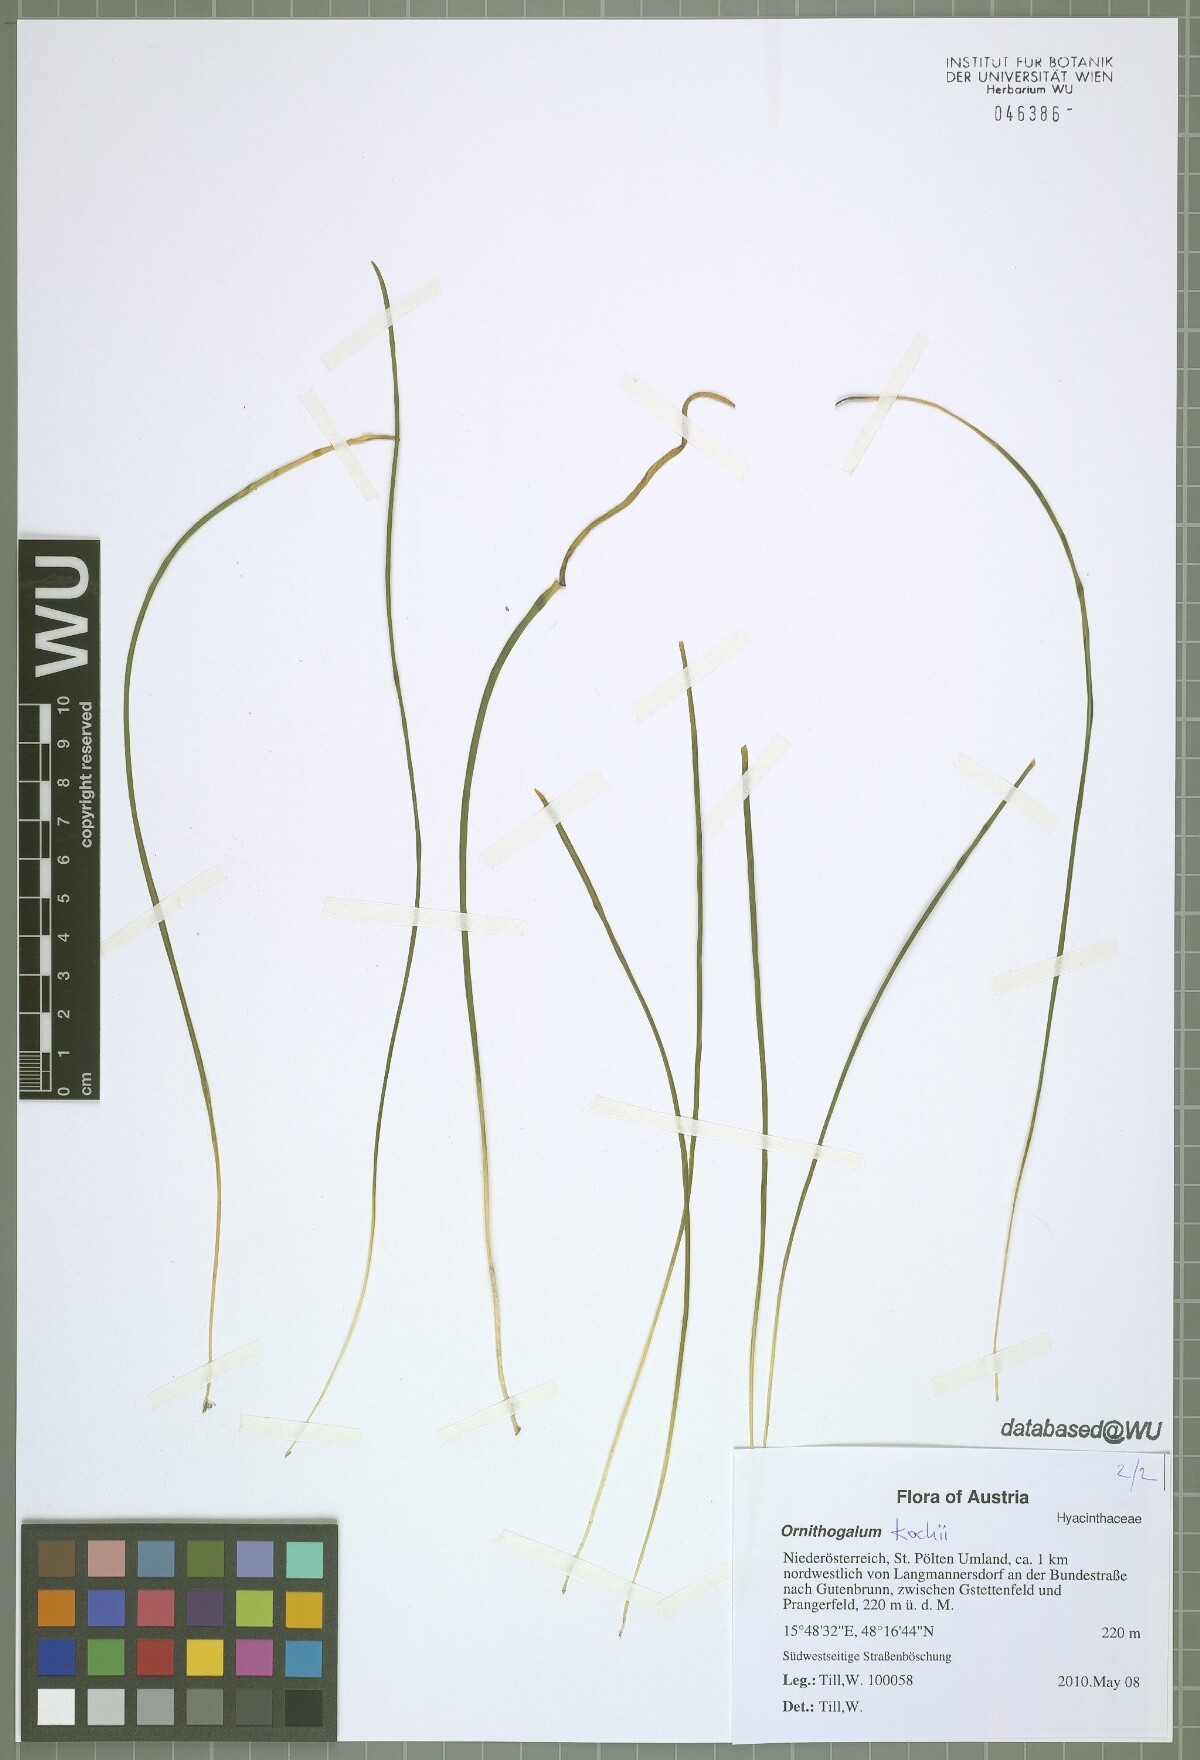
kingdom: Plantae
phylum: Tracheophyta
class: Liliopsida
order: Asparagales
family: Asparagaceae
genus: Ornithogalum
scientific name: Ornithogalum orthophyllum
